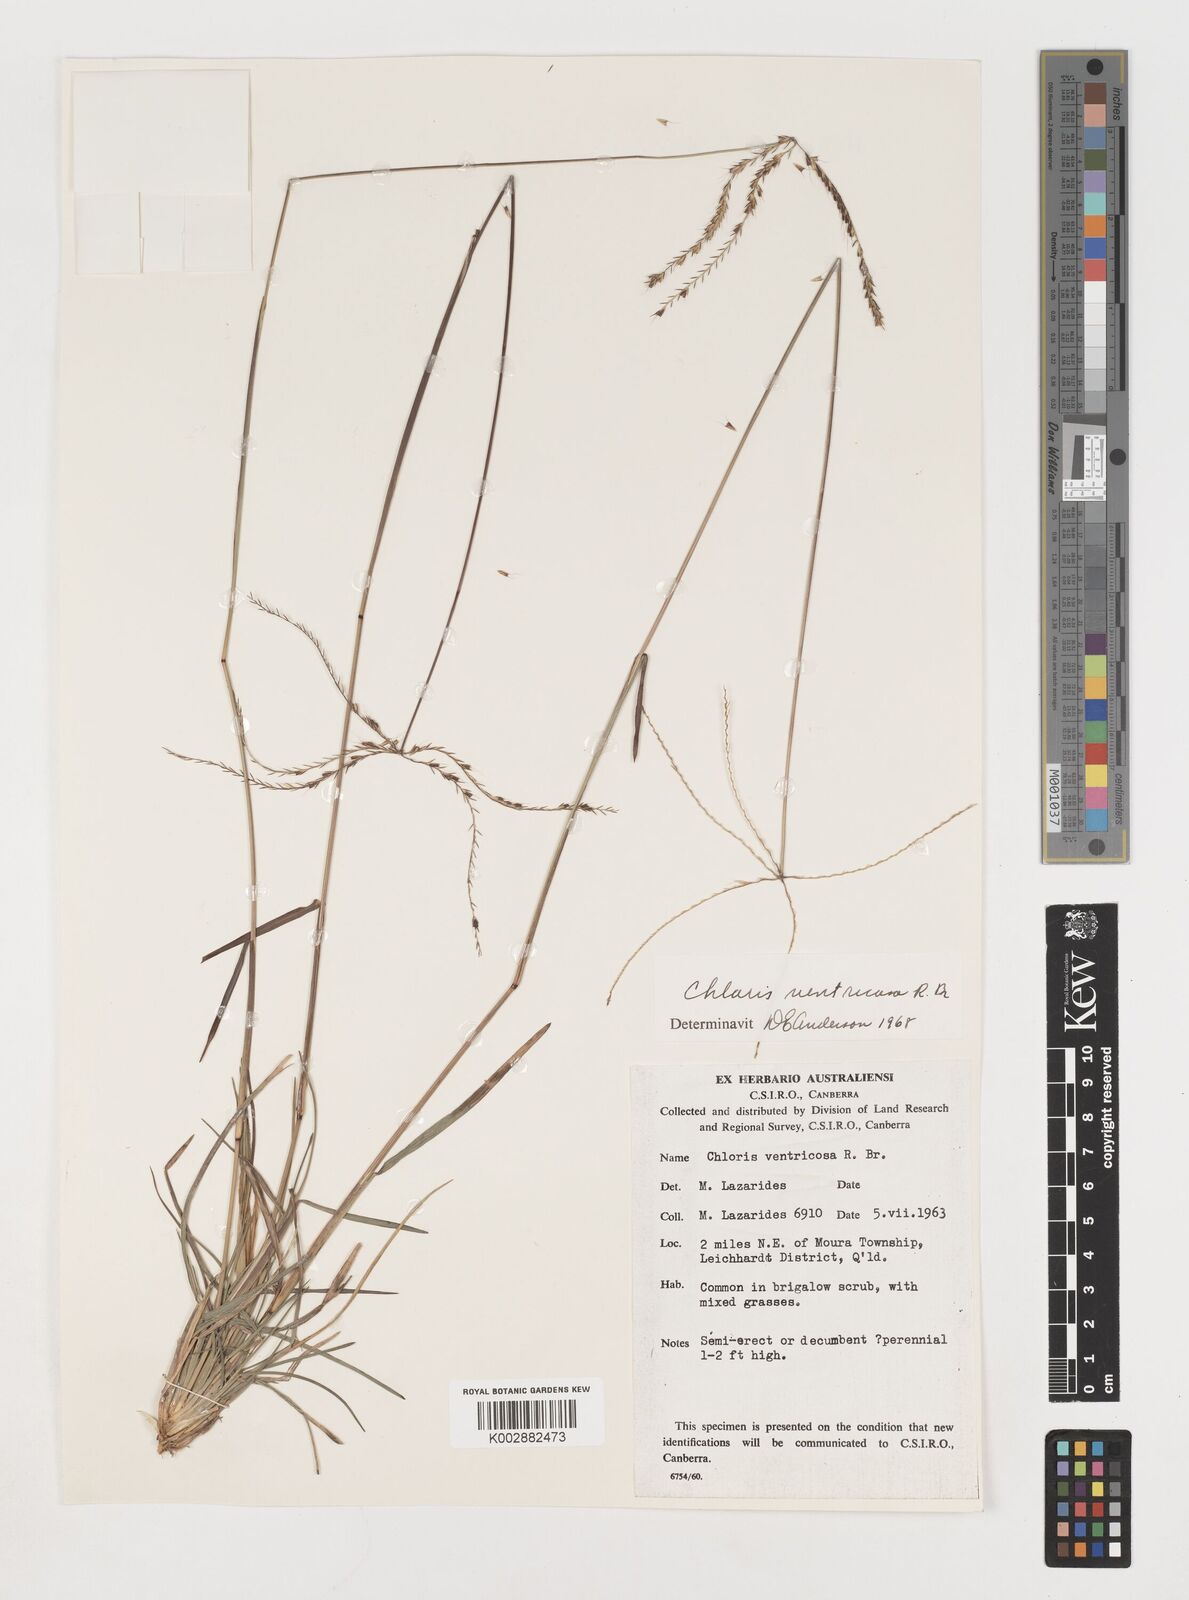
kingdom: Plantae
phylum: Tracheophyta
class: Liliopsida
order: Poales
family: Poaceae
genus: Chloris
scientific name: Chloris ventricosa
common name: Australian windmill grass
